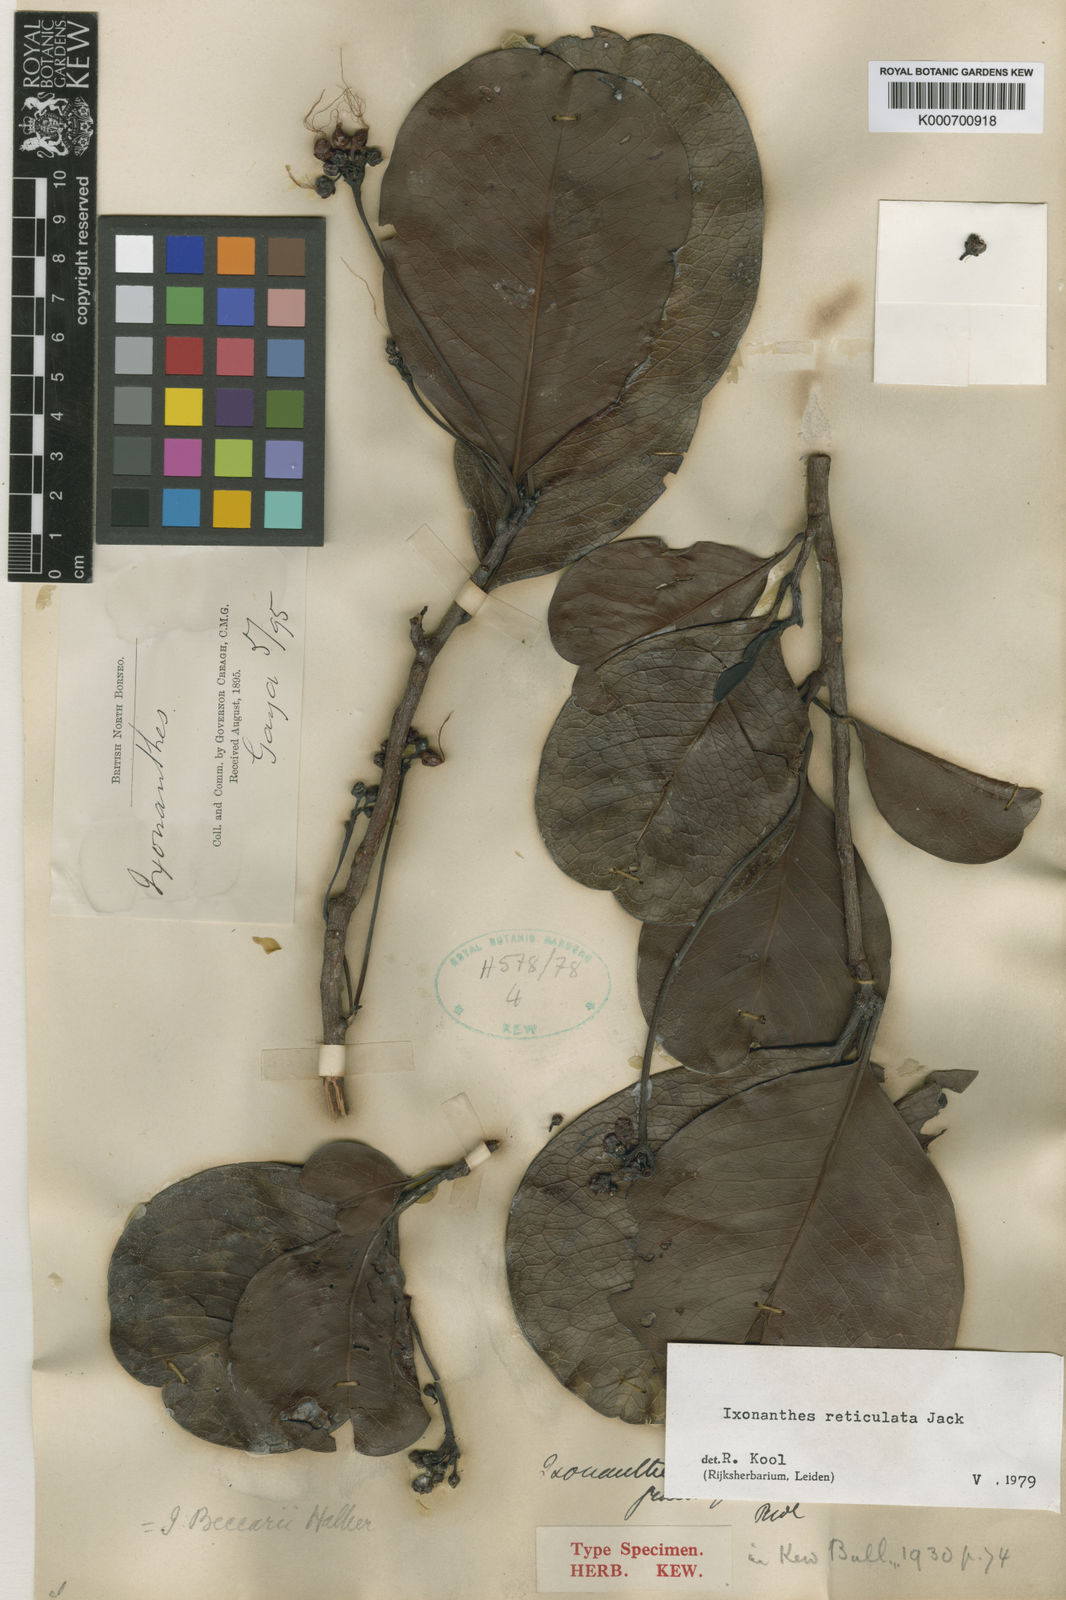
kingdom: Plantae
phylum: Tracheophyta
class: Magnoliopsida
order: Malpighiales
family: Ixonanthaceae
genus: Ixonanthes
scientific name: Ixonanthes reticulata
